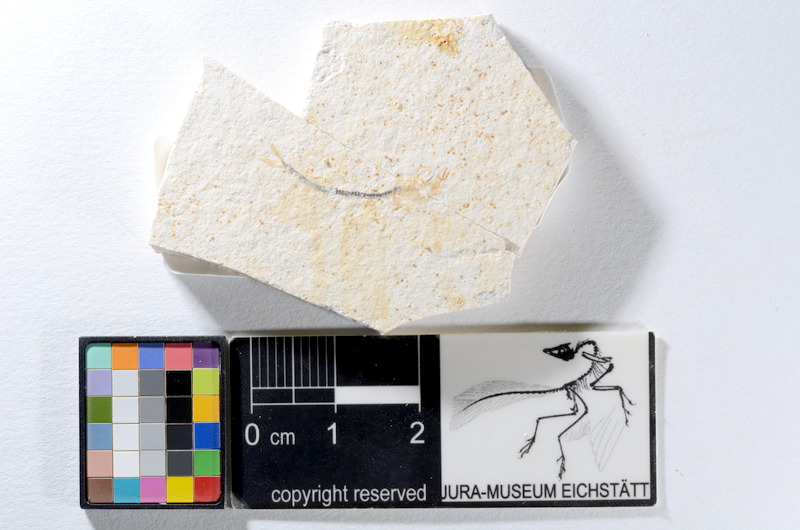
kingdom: Animalia
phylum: Chordata
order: Salmoniformes
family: Orthogonikleithridae
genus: Orthogonikleithrus
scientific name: Orthogonikleithrus hoelli
